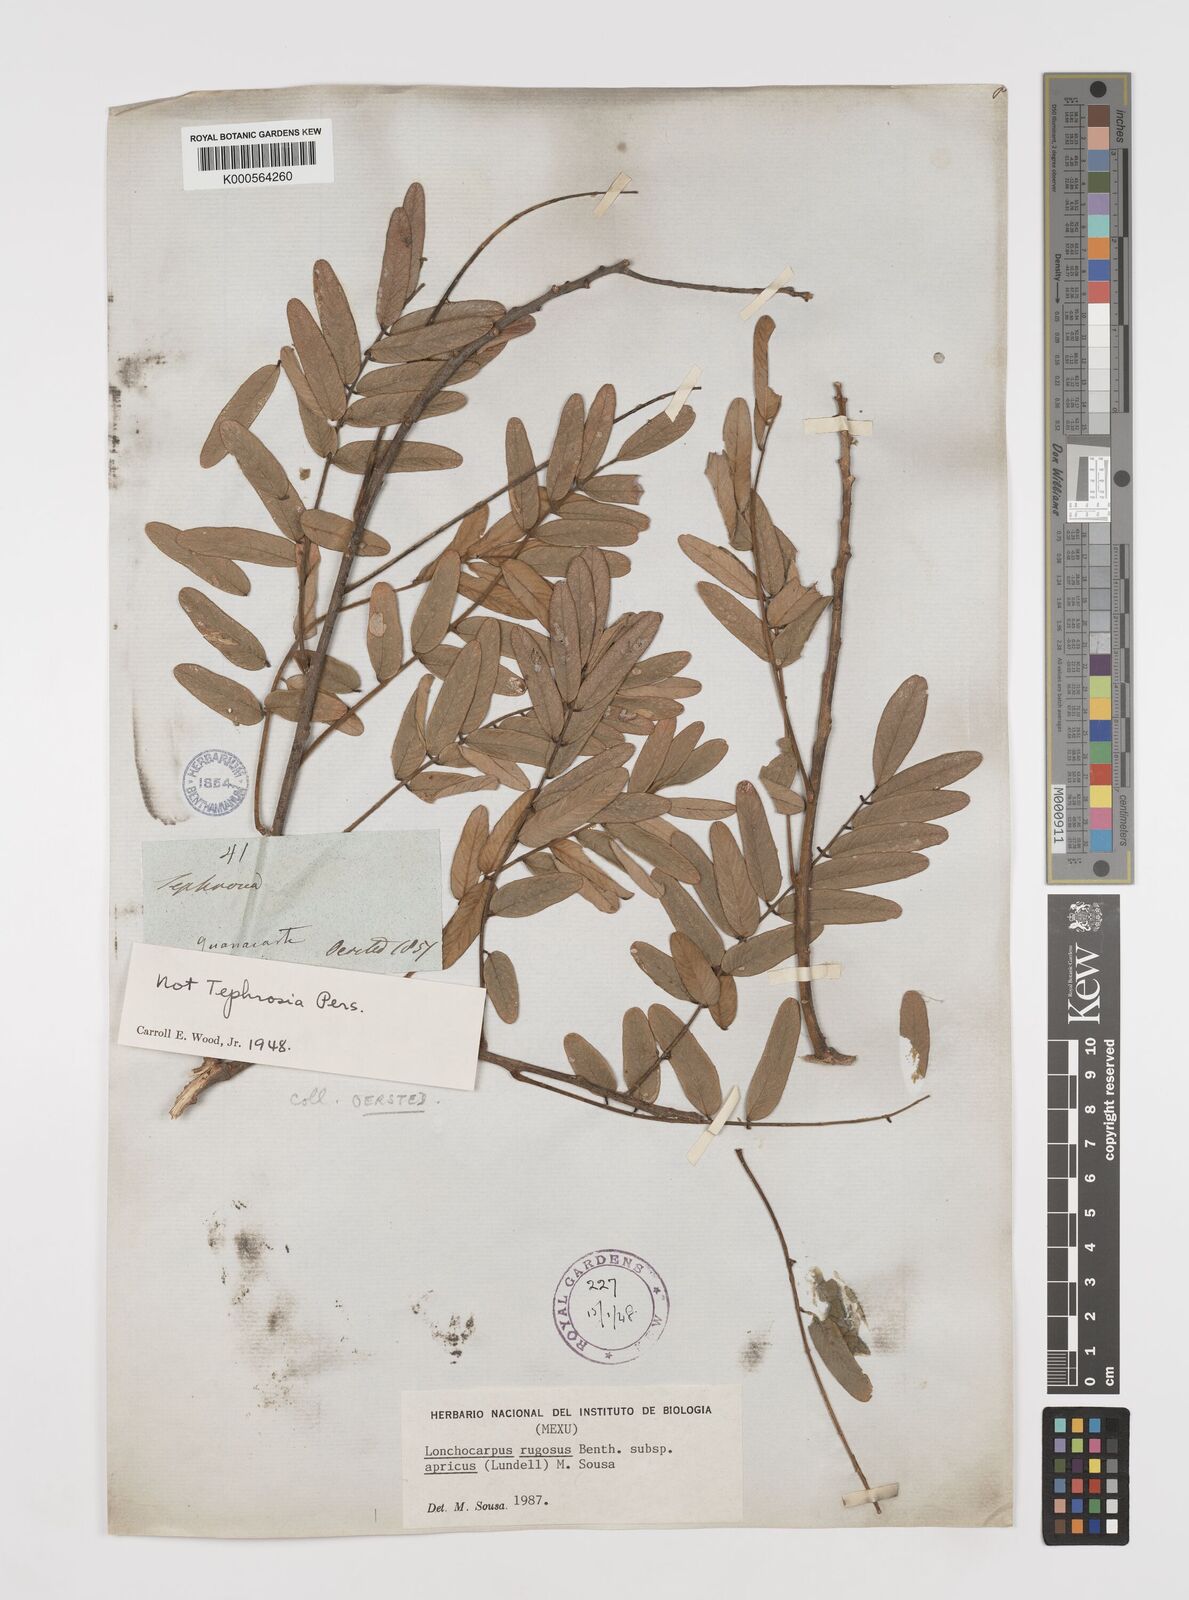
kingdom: Plantae
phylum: Tracheophyta
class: Magnoliopsida
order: Fabales
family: Fabaceae
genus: Lonchocarpus
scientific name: Lonchocarpus rugosus
